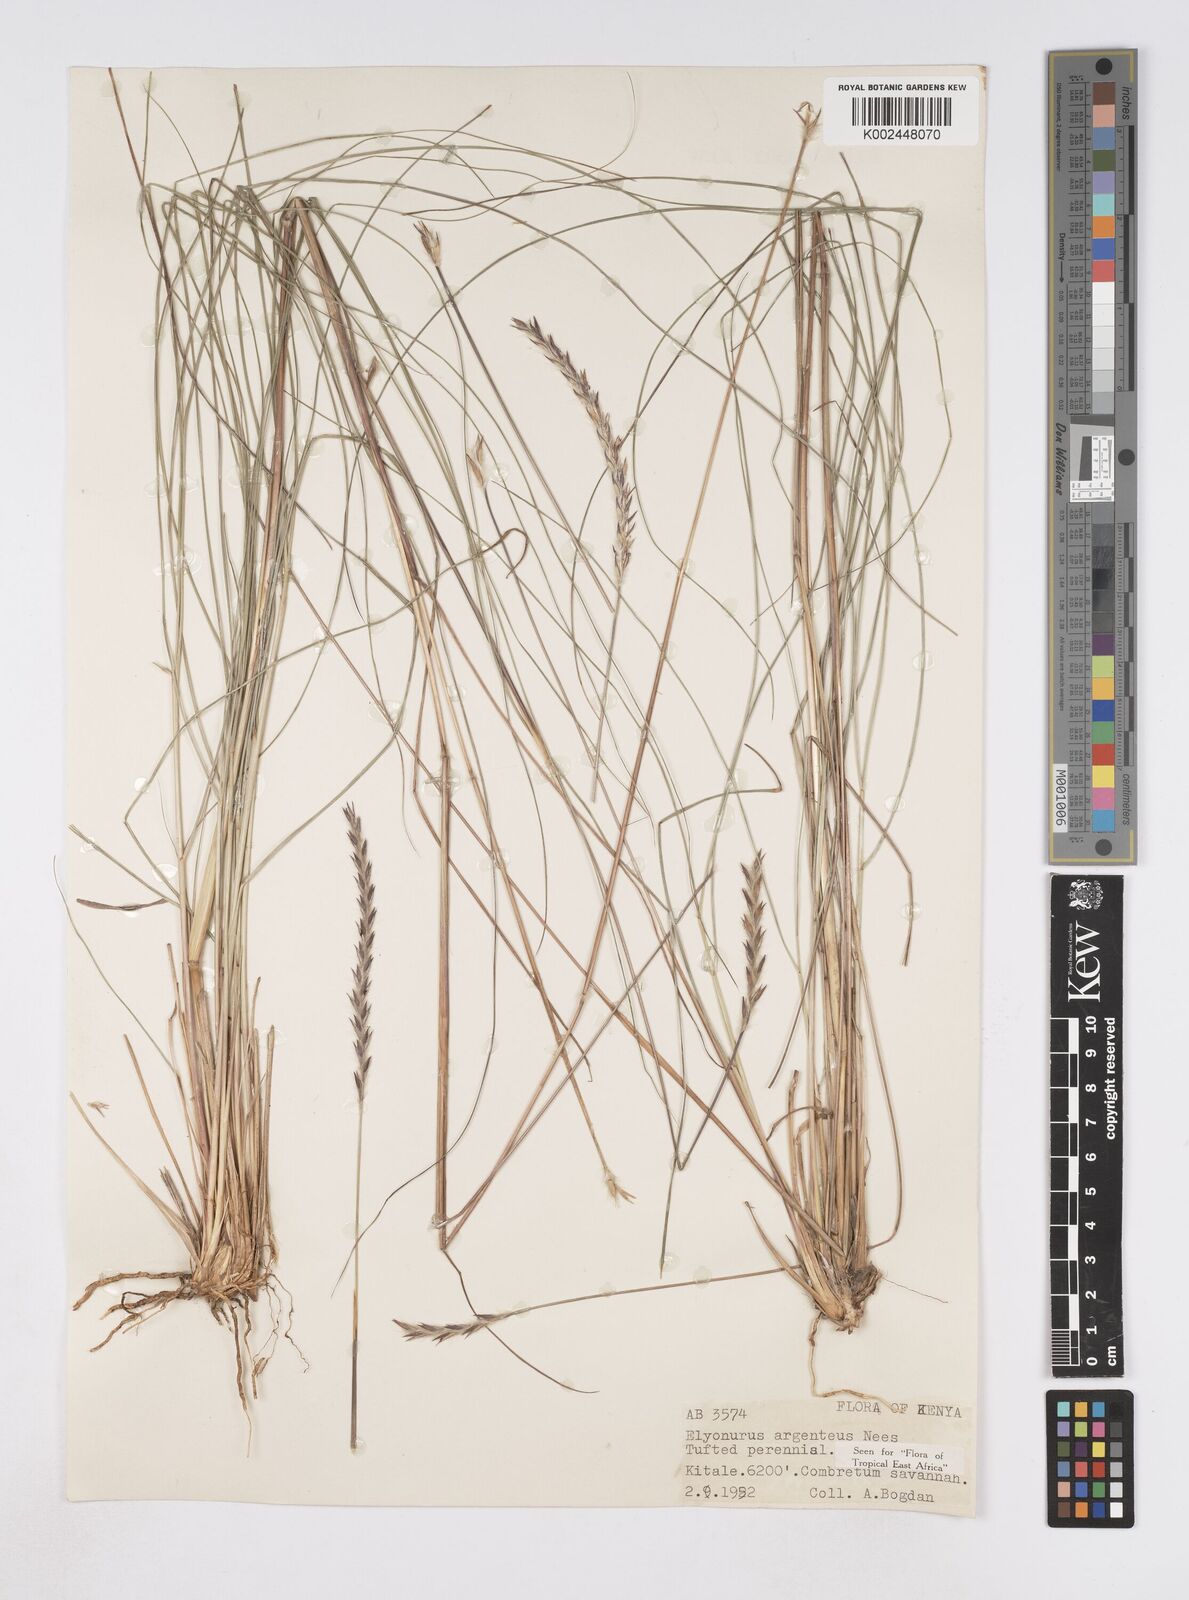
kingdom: Plantae
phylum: Tracheophyta
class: Liliopsida
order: Poales
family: Poaceae
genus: Elionurus
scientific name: Elionurus muticus
